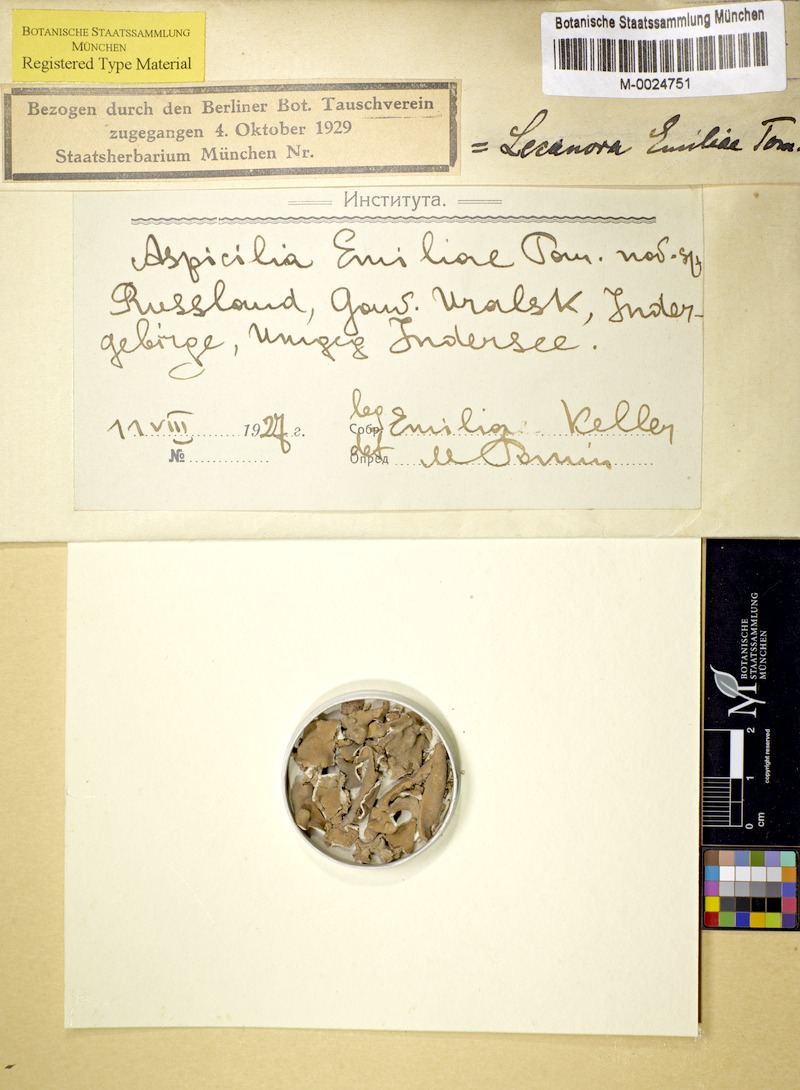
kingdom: Fungi
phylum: Ascomycota
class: Lecanoromycetes
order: Pertusariales
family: Megasporaceae
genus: Circinaria
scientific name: Circinaria emiliae
